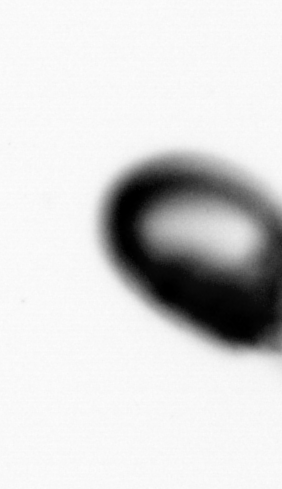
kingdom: Animalia
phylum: Annelida
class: Polychaeta
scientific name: Polychaeta
